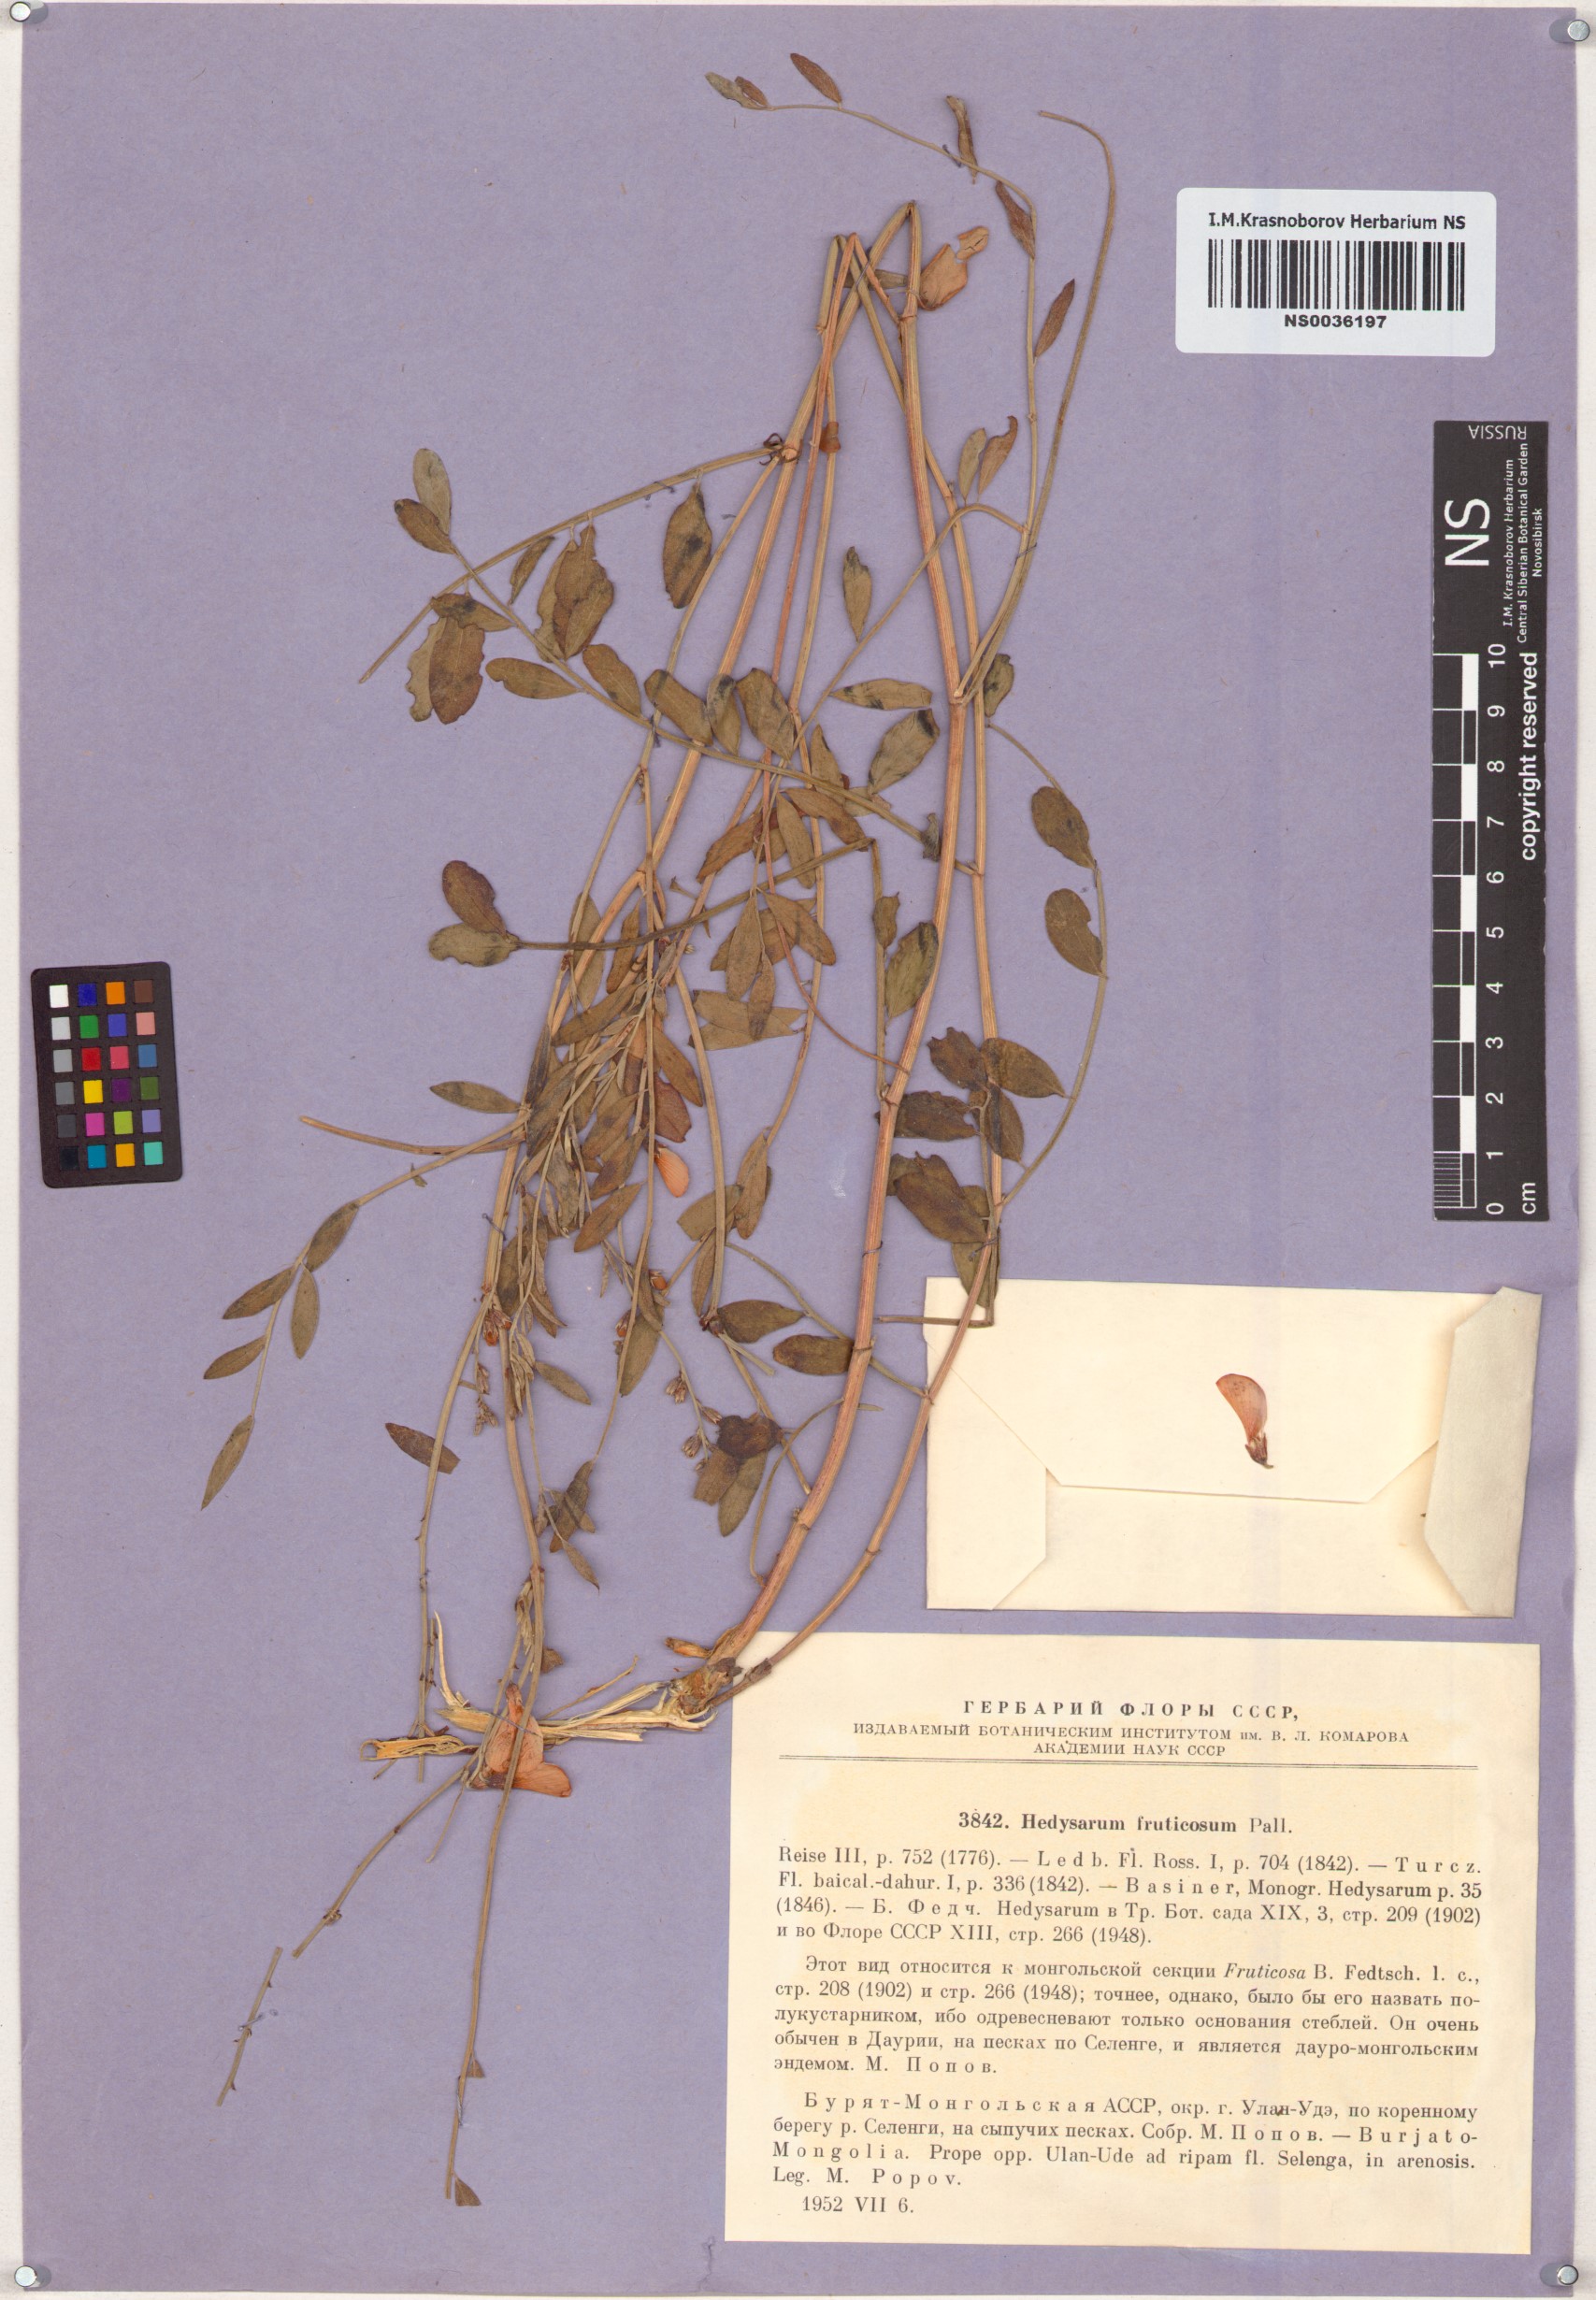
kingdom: Plantae
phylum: Tracheophyta
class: Magnoliopsida
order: Fabales
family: Fabaceae
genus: Corethrodendron
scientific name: Corethrodendron fruticosum
